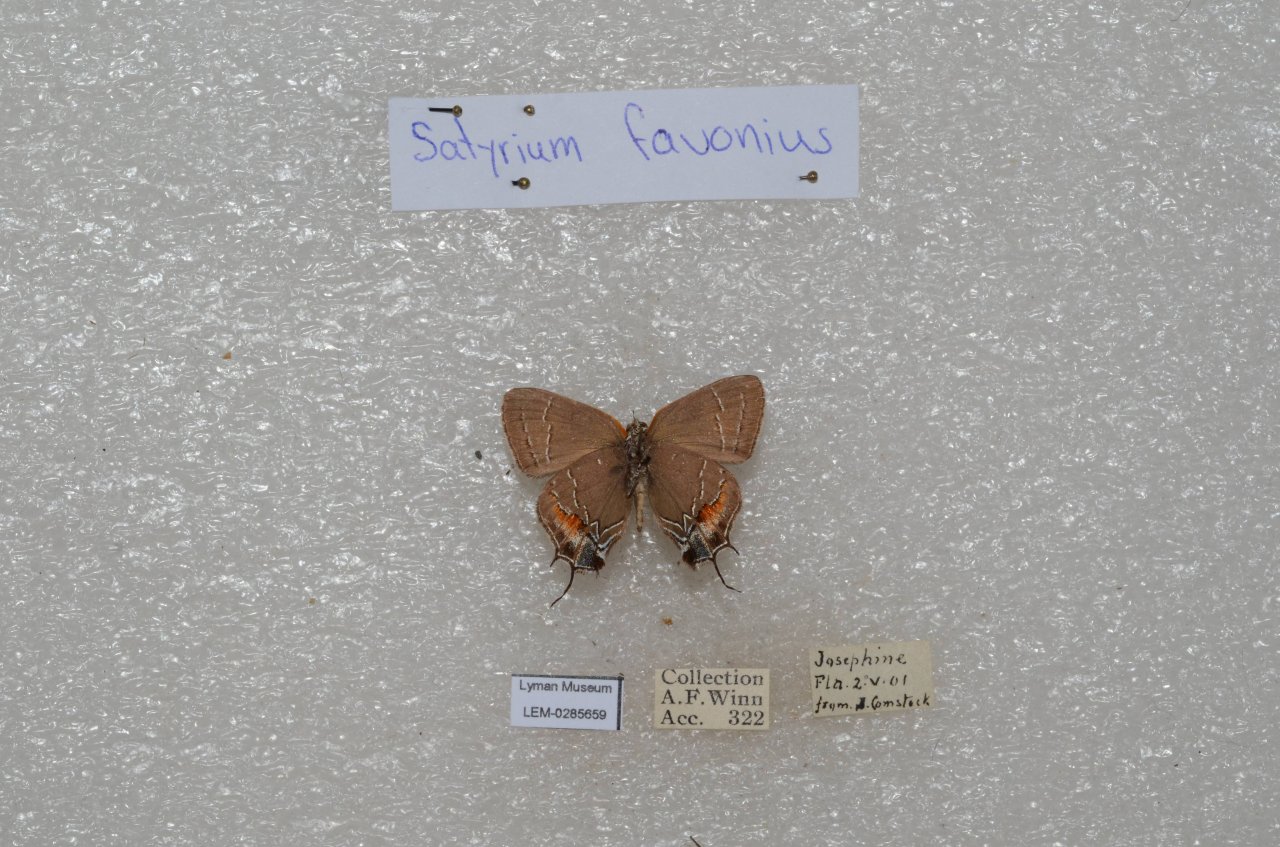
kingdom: Animalia
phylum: Arthropoda
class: Insecta
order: Lepidoptera
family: Lycaenidae
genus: Fixsenia
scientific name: Fixsenia favonius
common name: Oak Hairstreak
